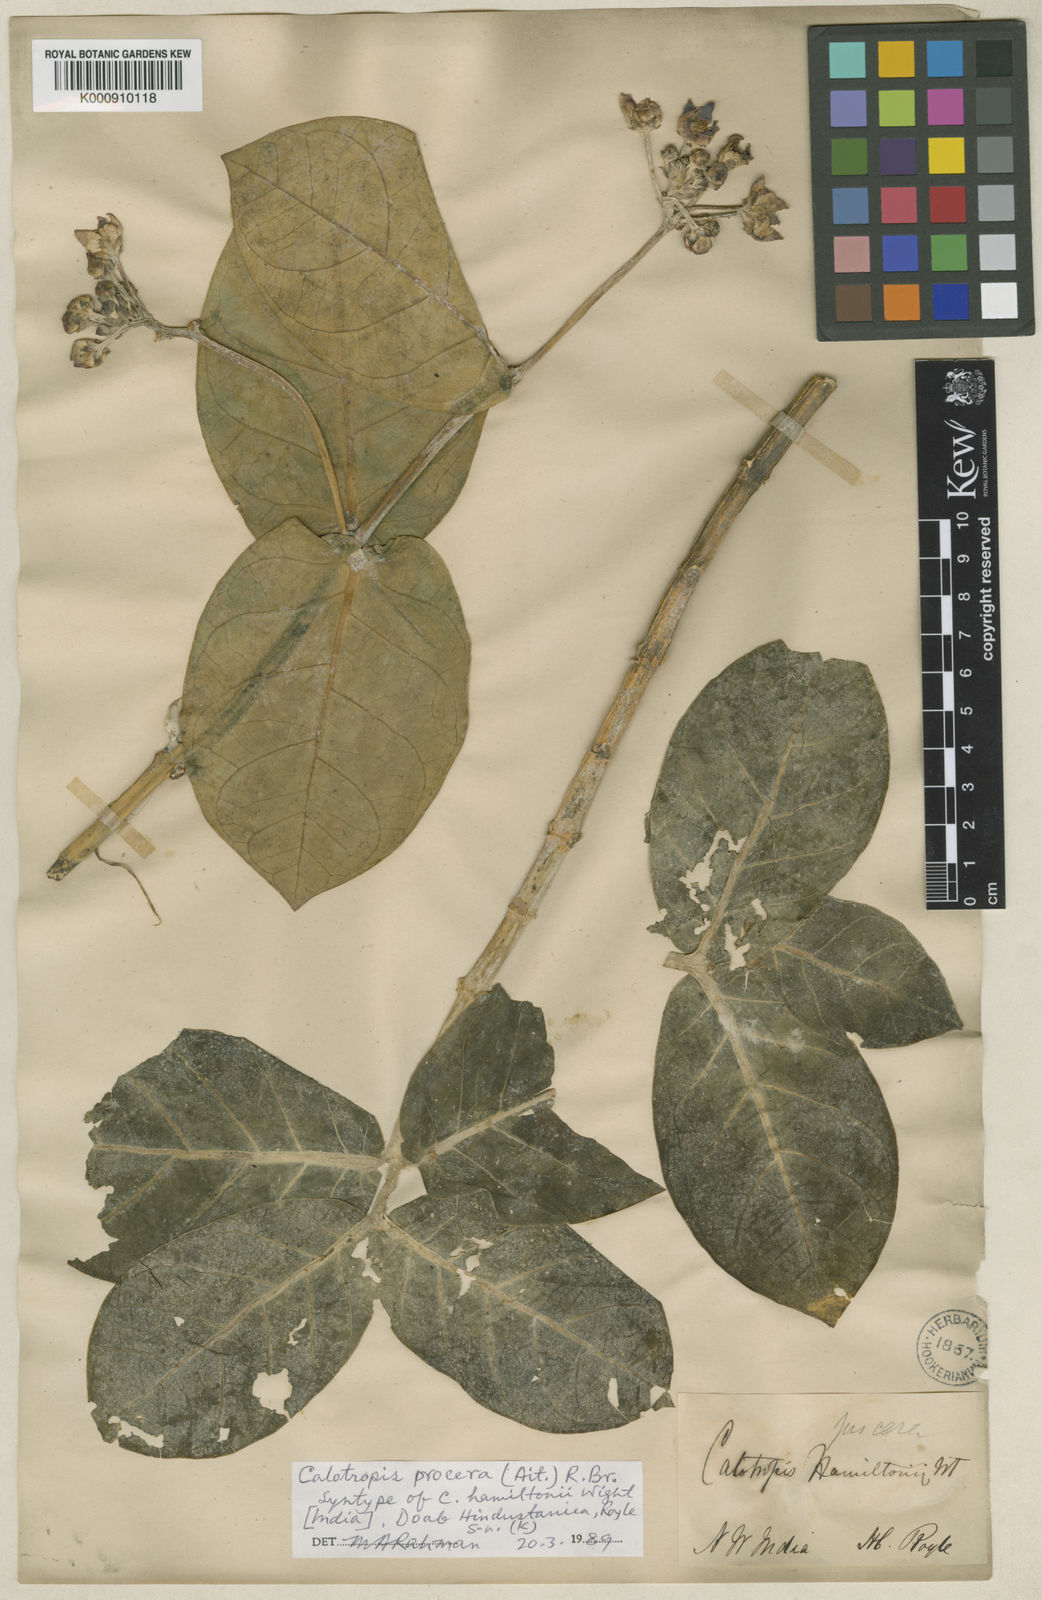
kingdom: Plantae
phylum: Tracheophyta
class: Magnoliopsida
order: Gentianales
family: Apocynaceae
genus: Calotropis
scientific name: Calotropis procera
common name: Roostertree
